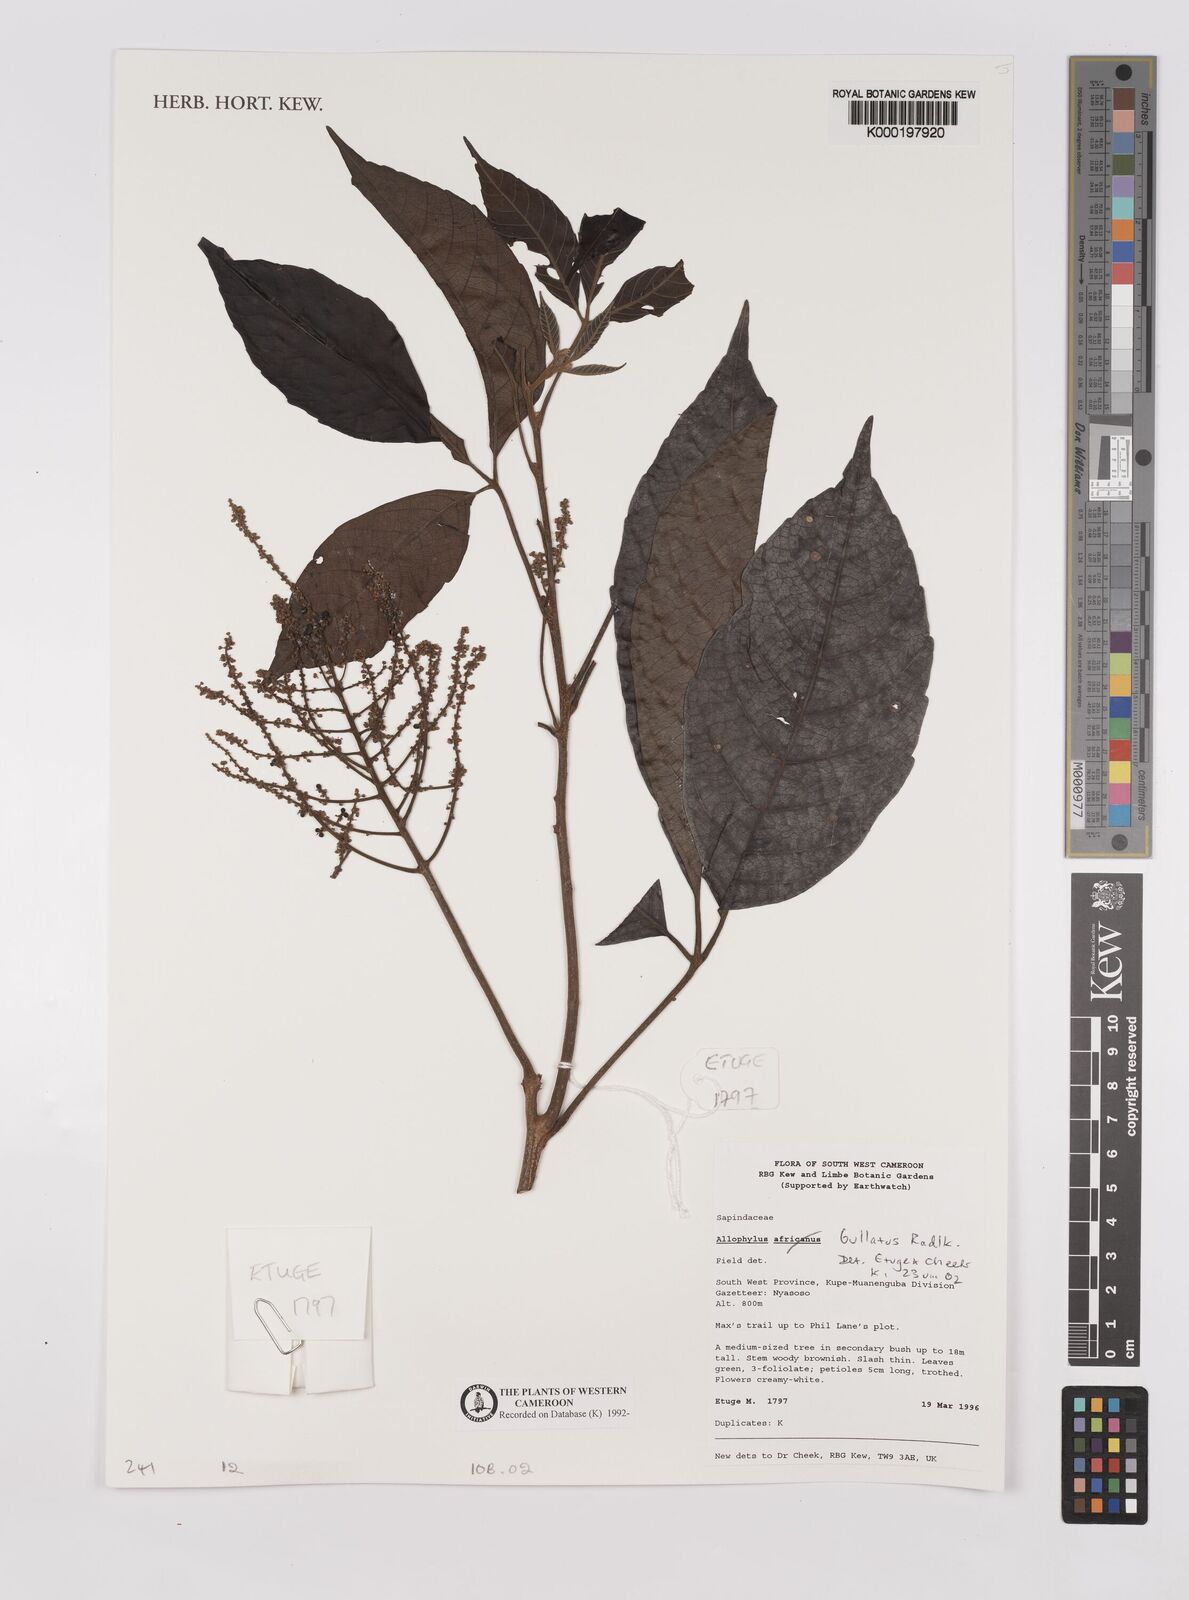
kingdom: Plantae
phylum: Tracheophyta
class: Magnoliopsida
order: Sapindales
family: Sapindaceae
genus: Allophylus
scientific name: Allophylus bullatus
